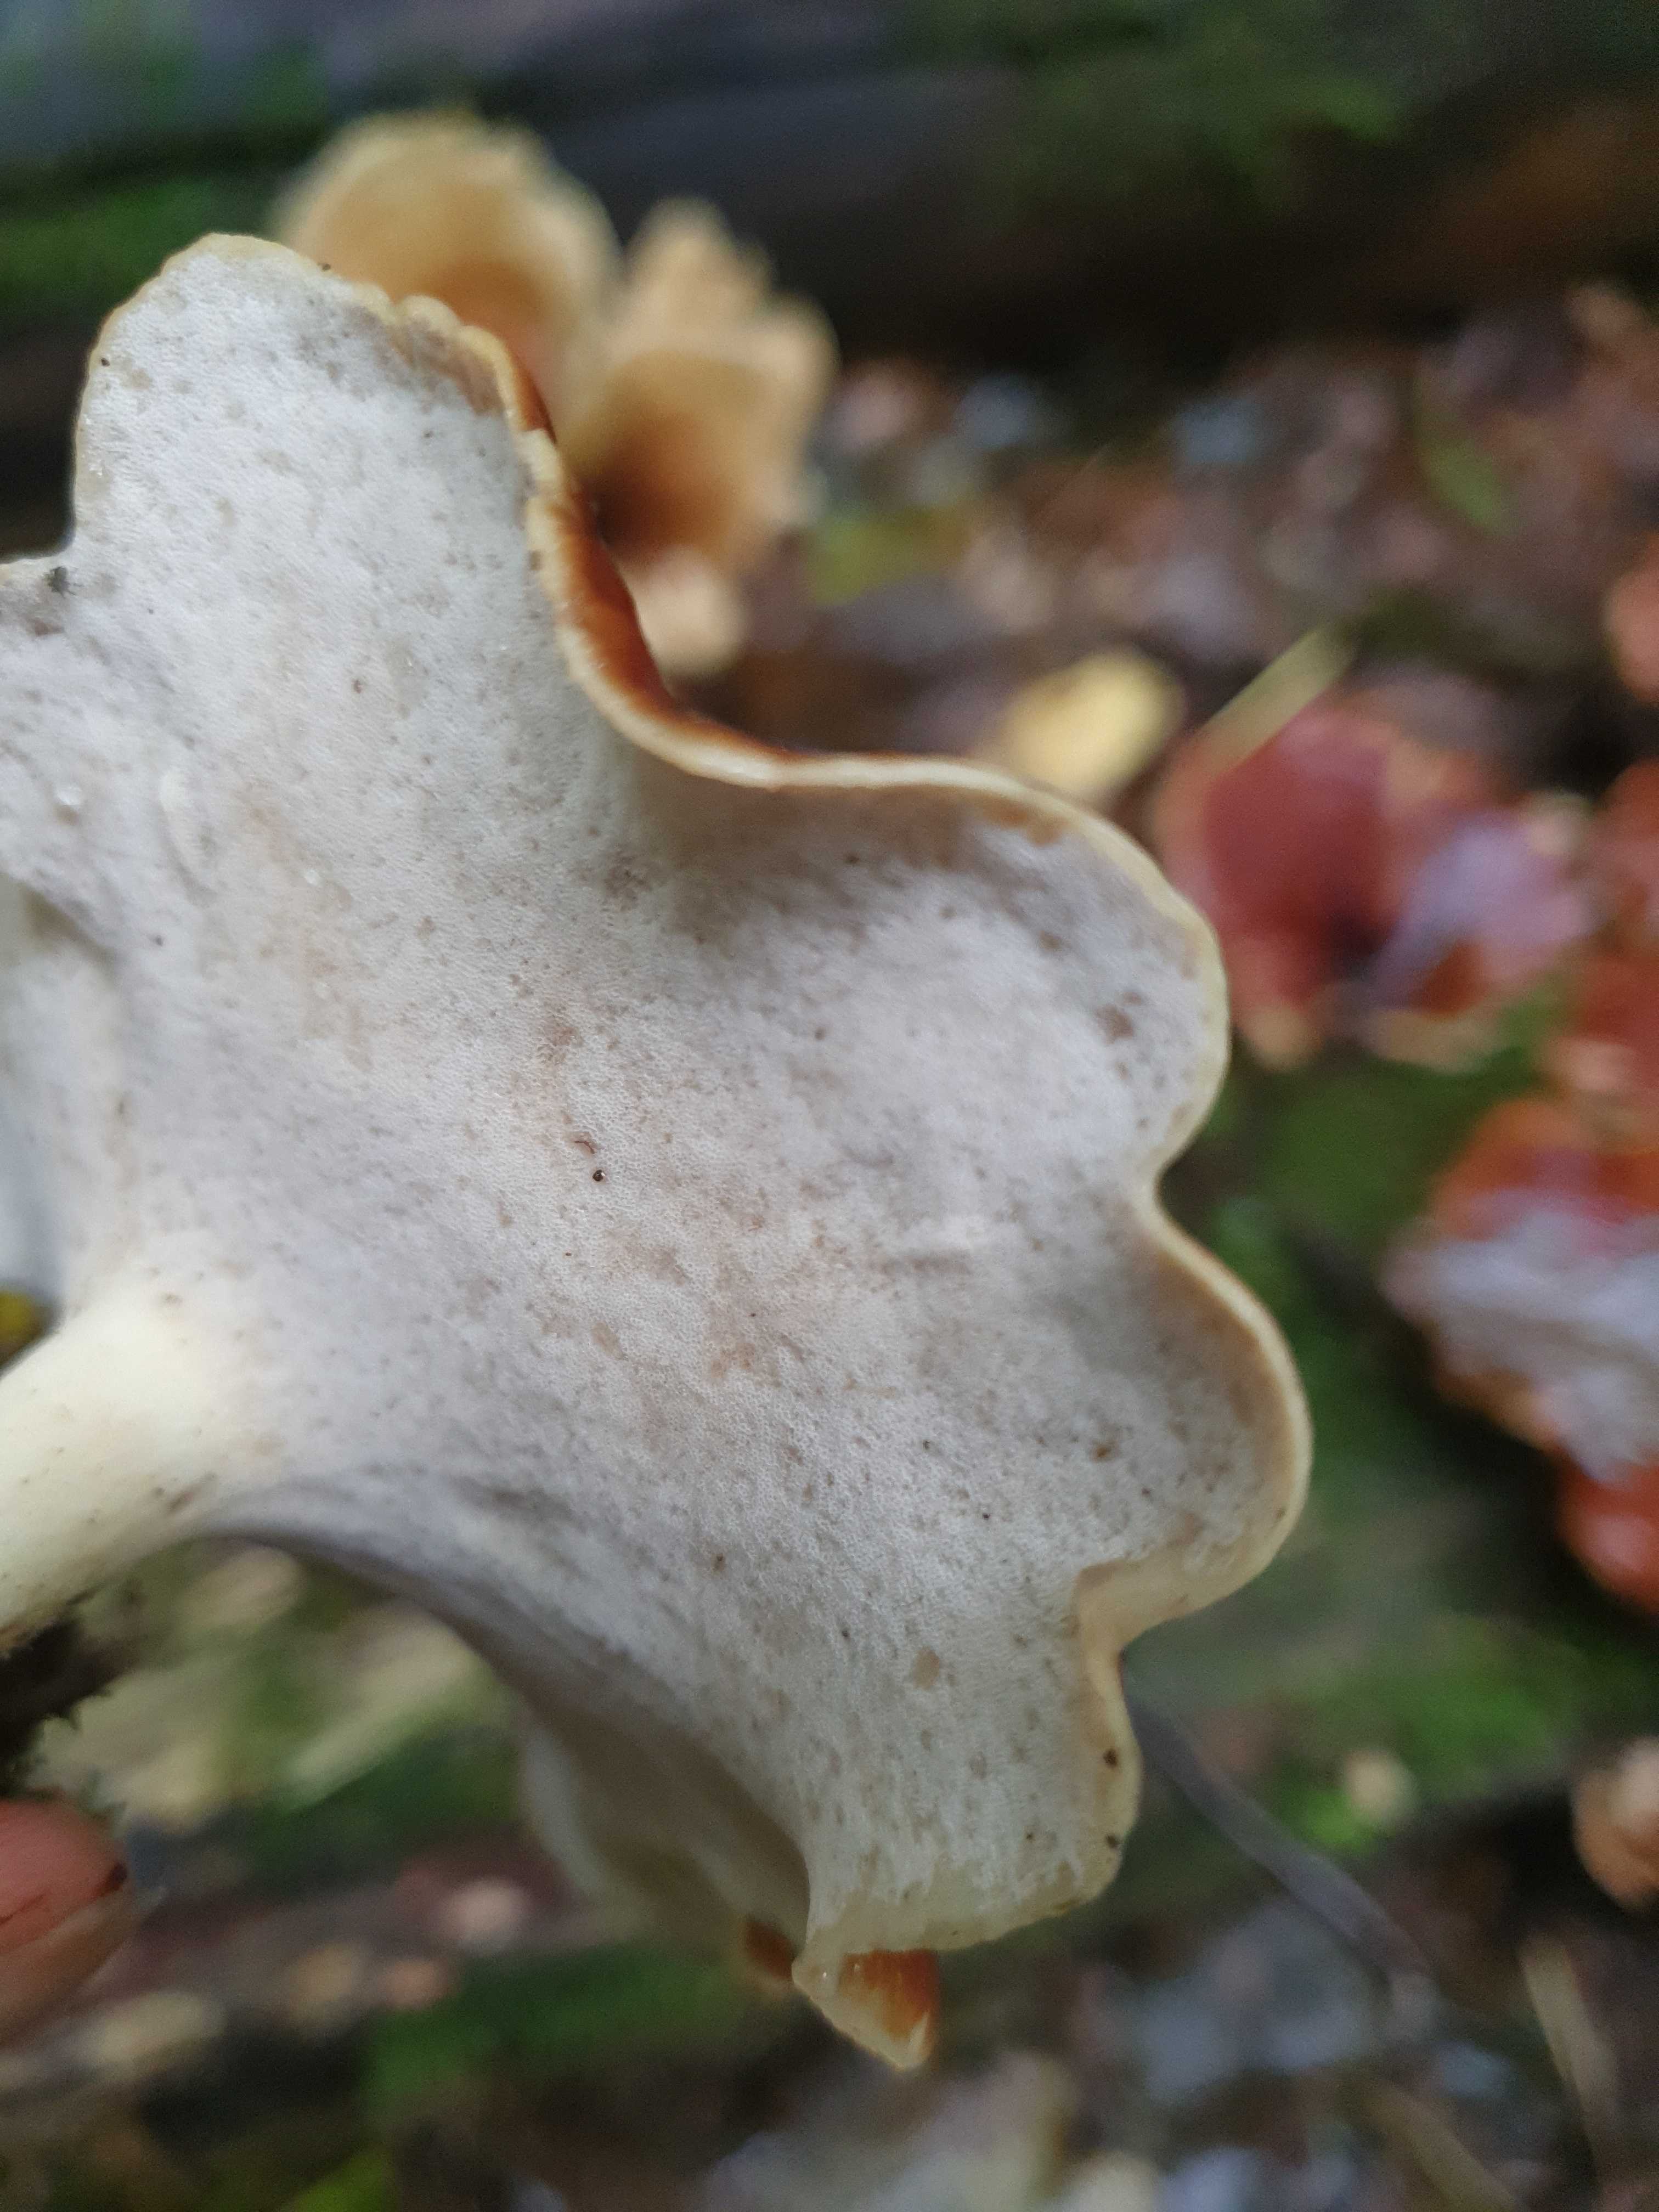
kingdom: Fungi
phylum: Basidiomycota
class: Agaricomycetes
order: Polyporales
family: Polyporaceae
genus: Picipes
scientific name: Picipes badius
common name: kastaniebrun stilkporesvamp
